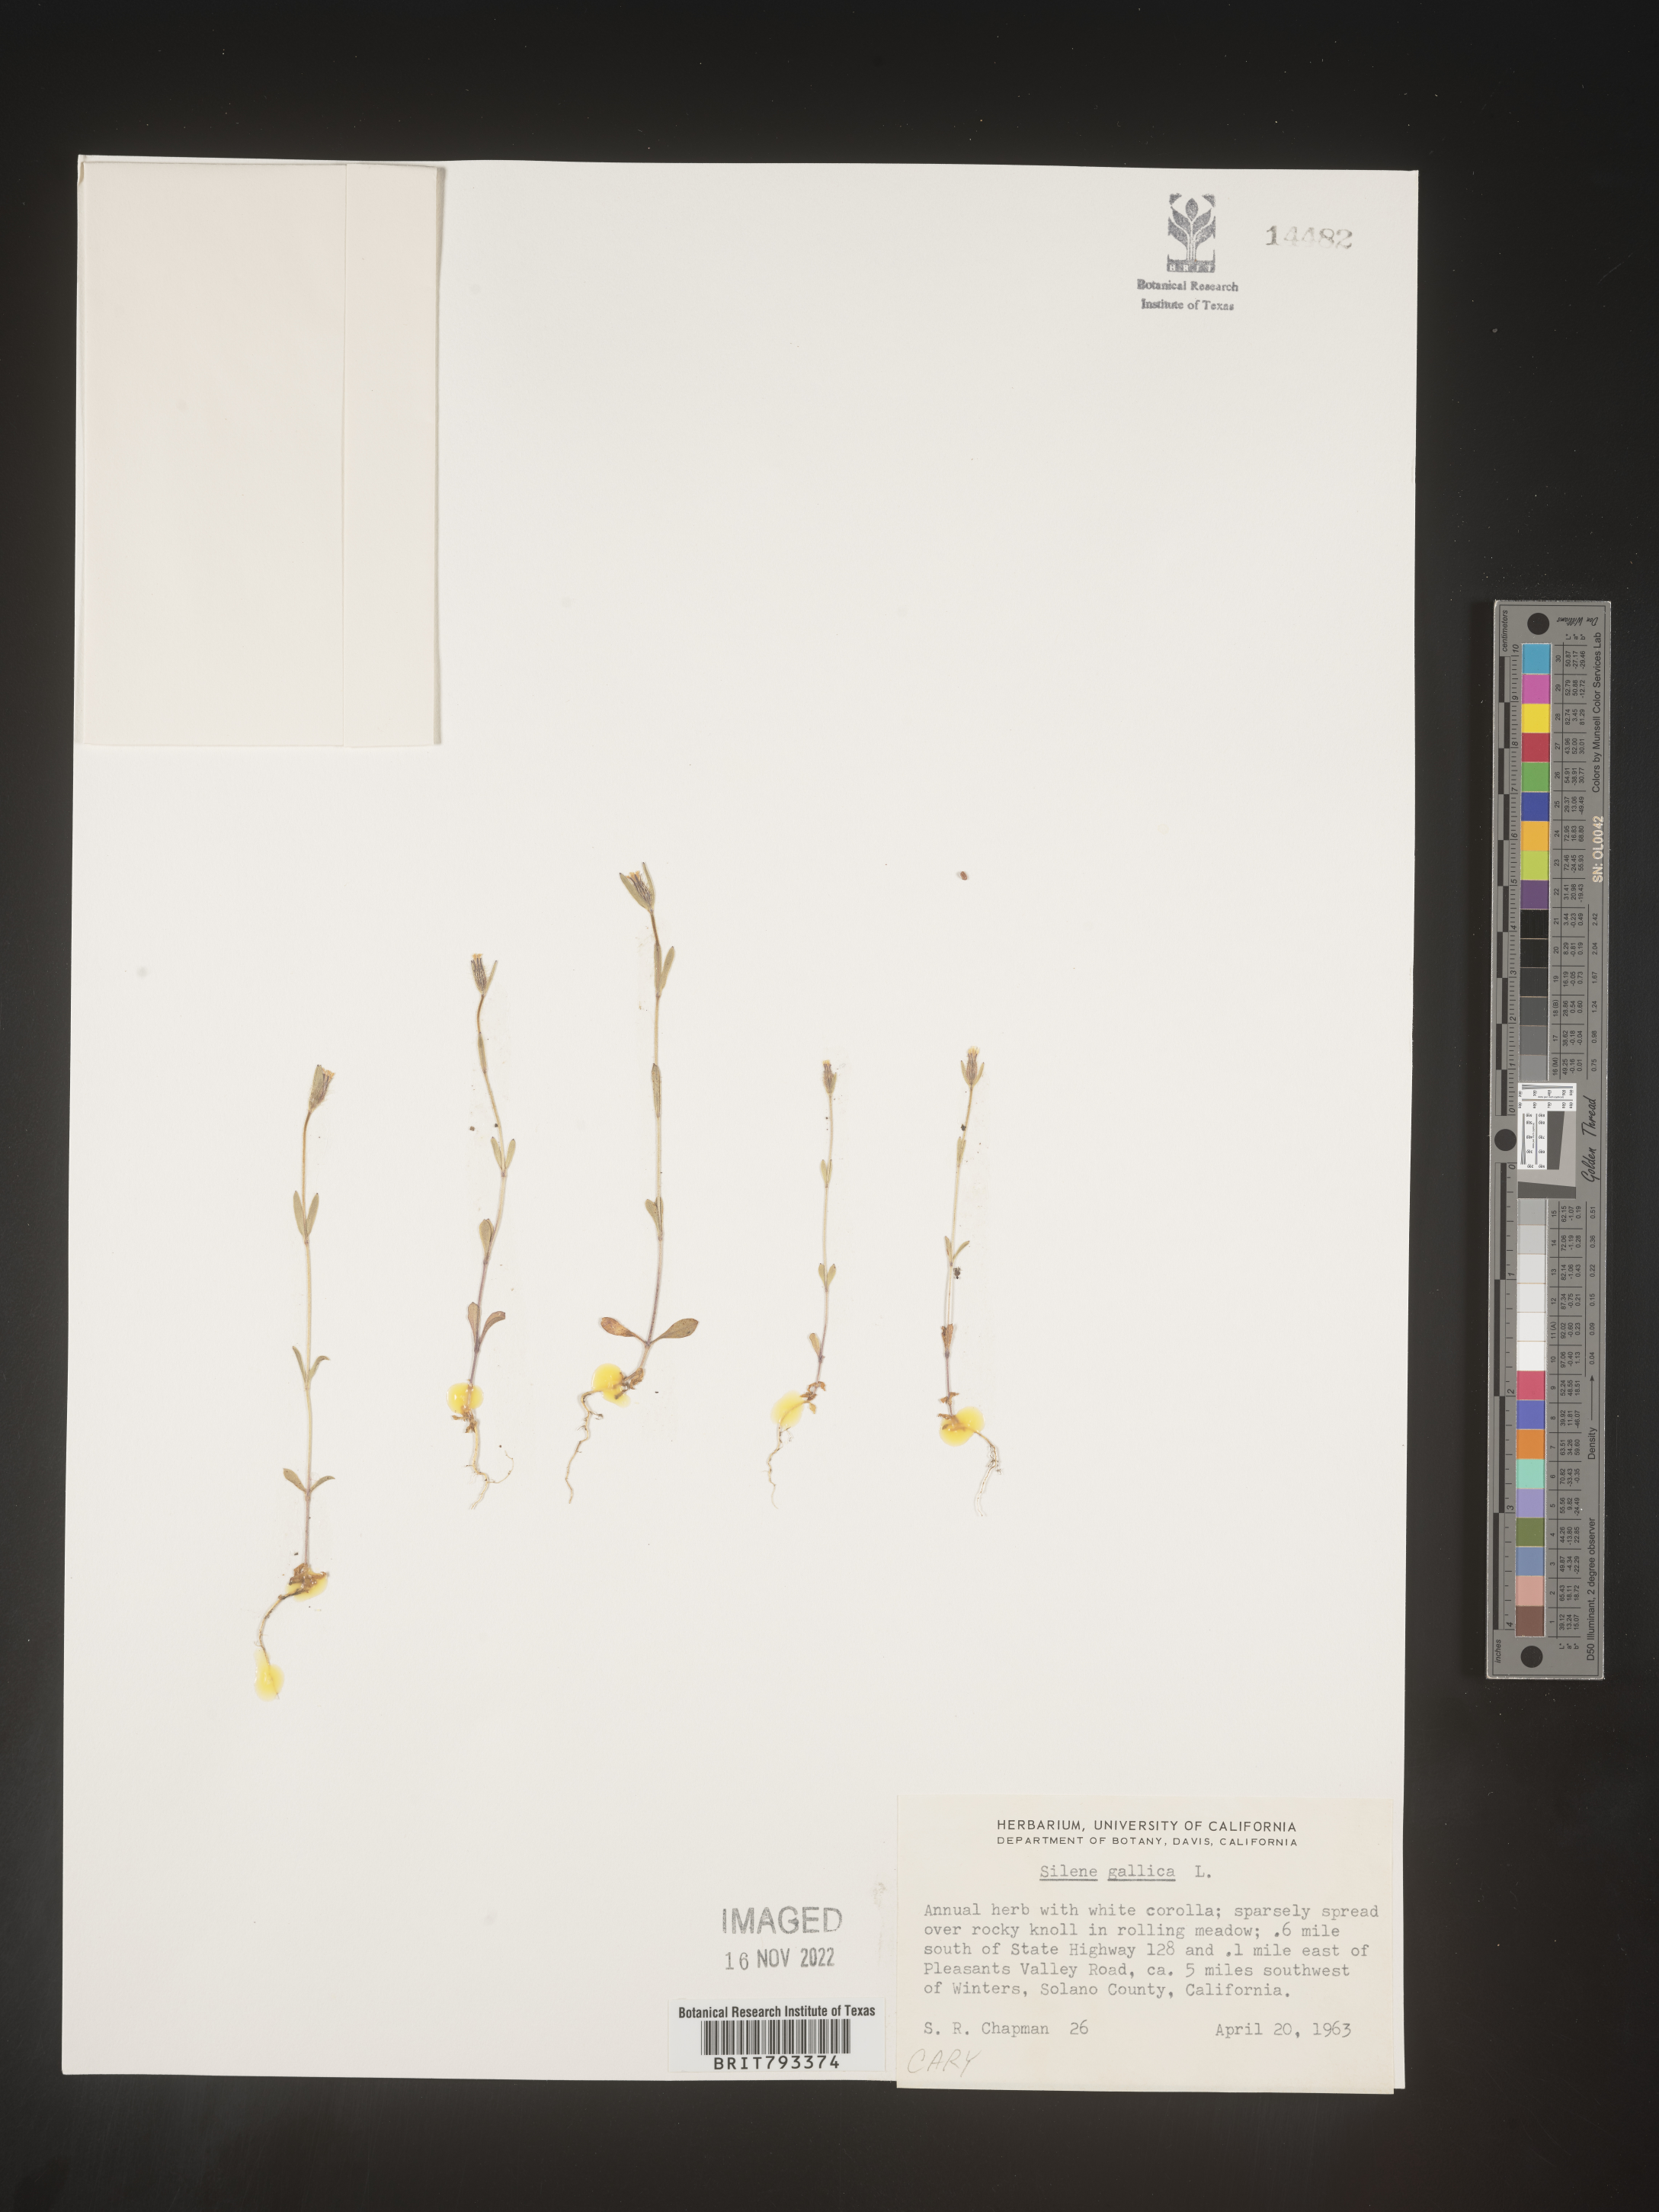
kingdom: Plantae
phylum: Tracheophyta
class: Magnoliopsida
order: Caryophyllales
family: Caryophyllaceae
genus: Silene
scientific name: Silene gallica
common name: Small-flowered catchfly
